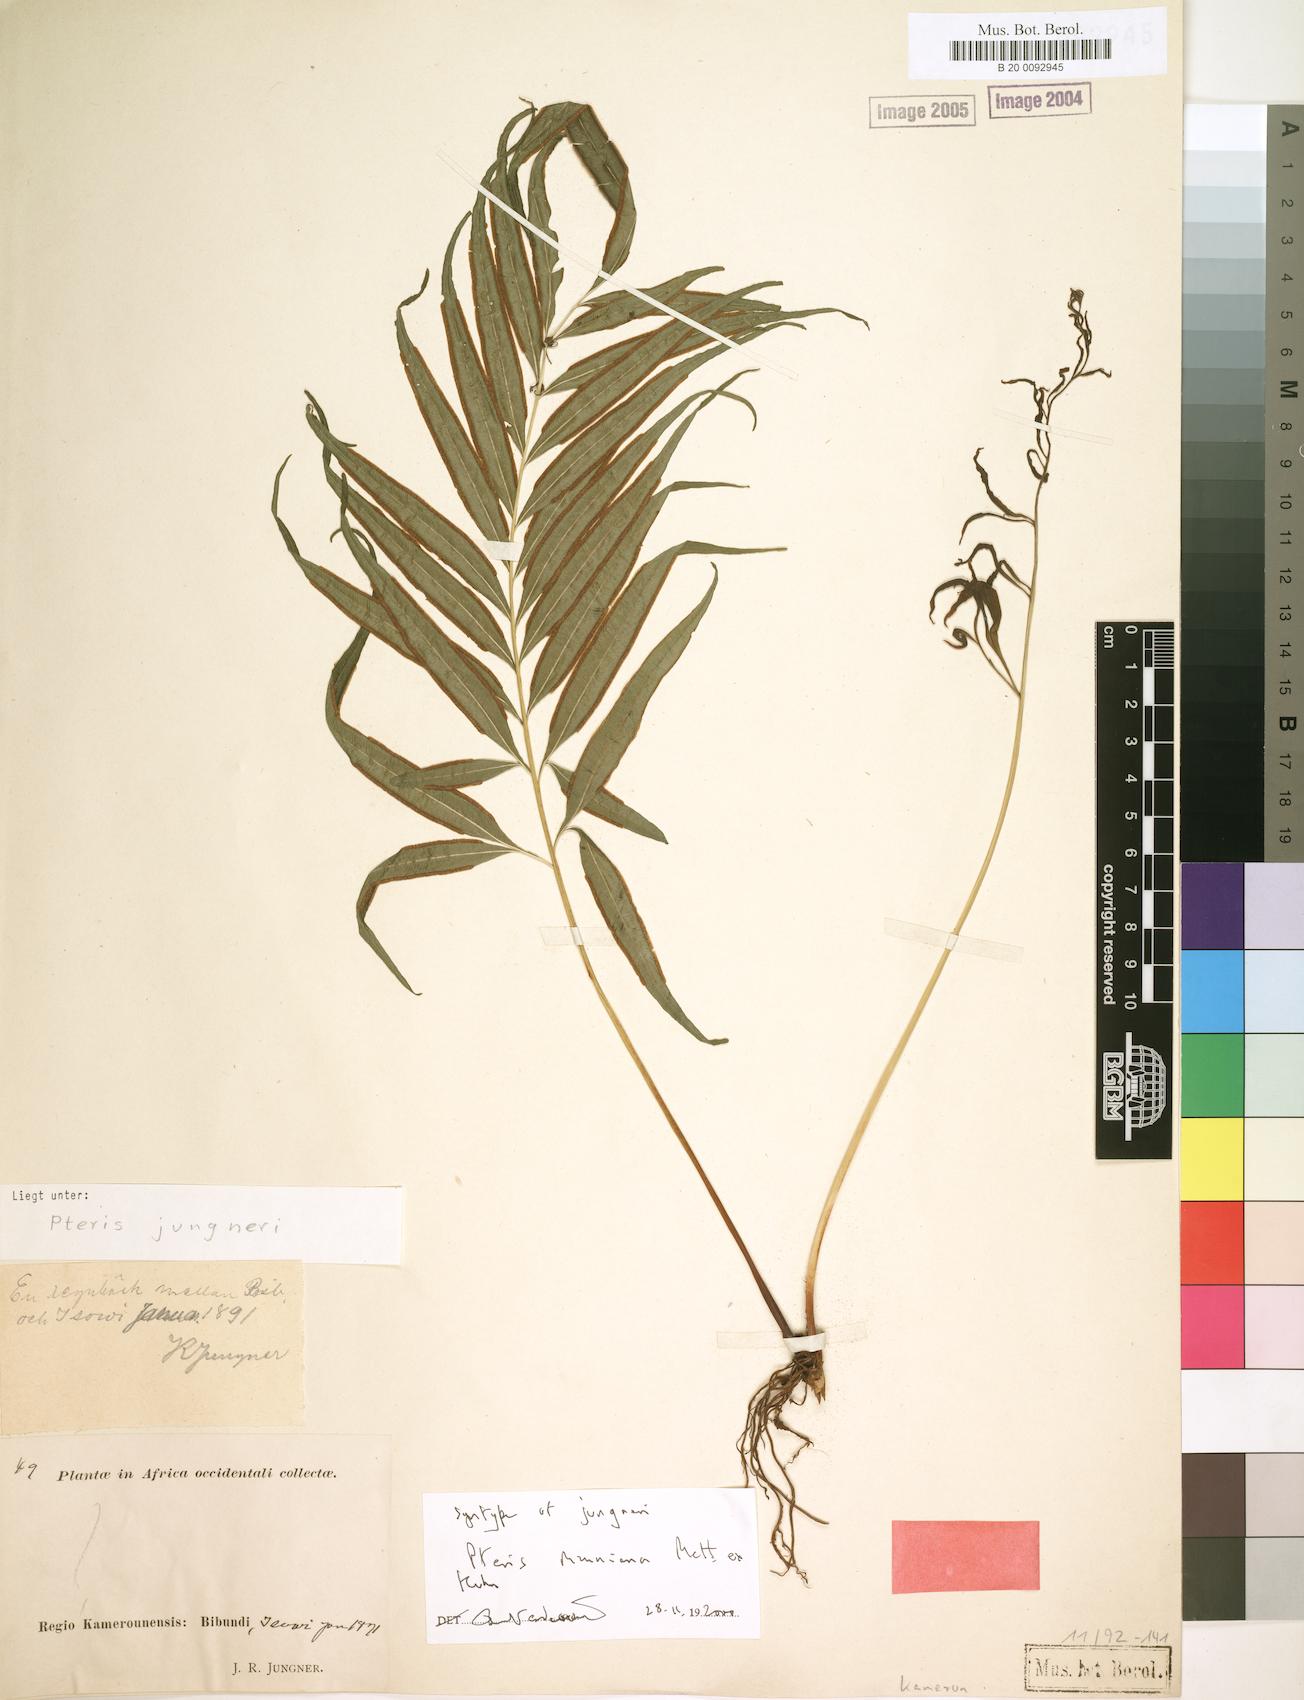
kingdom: Plantae
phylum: Tracheophyta
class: Polypodiopsida
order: Polypodiales
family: Pteridaceae
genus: Pteris
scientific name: Pteris camerooniana
